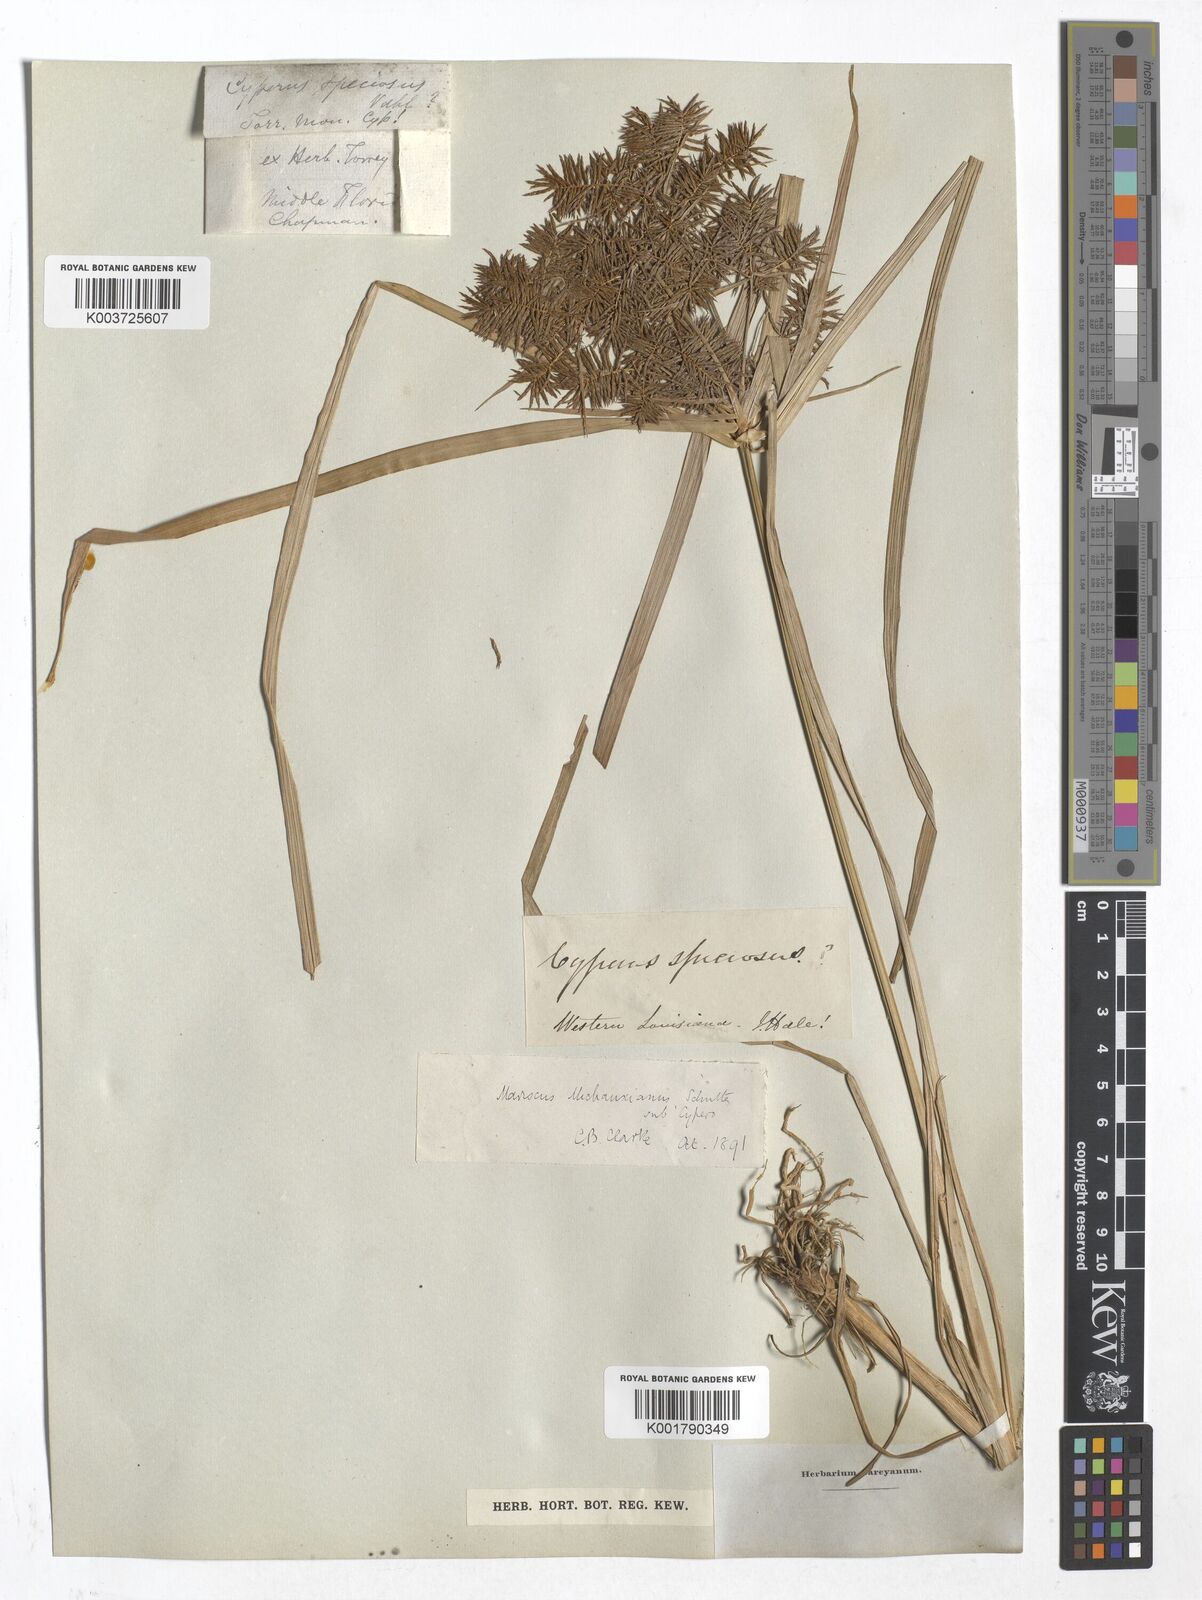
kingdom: Plantae
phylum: Tracheophyta
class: Liliopsida
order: Poales
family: Cyperaceae
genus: Mariscus
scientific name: Mariscus
